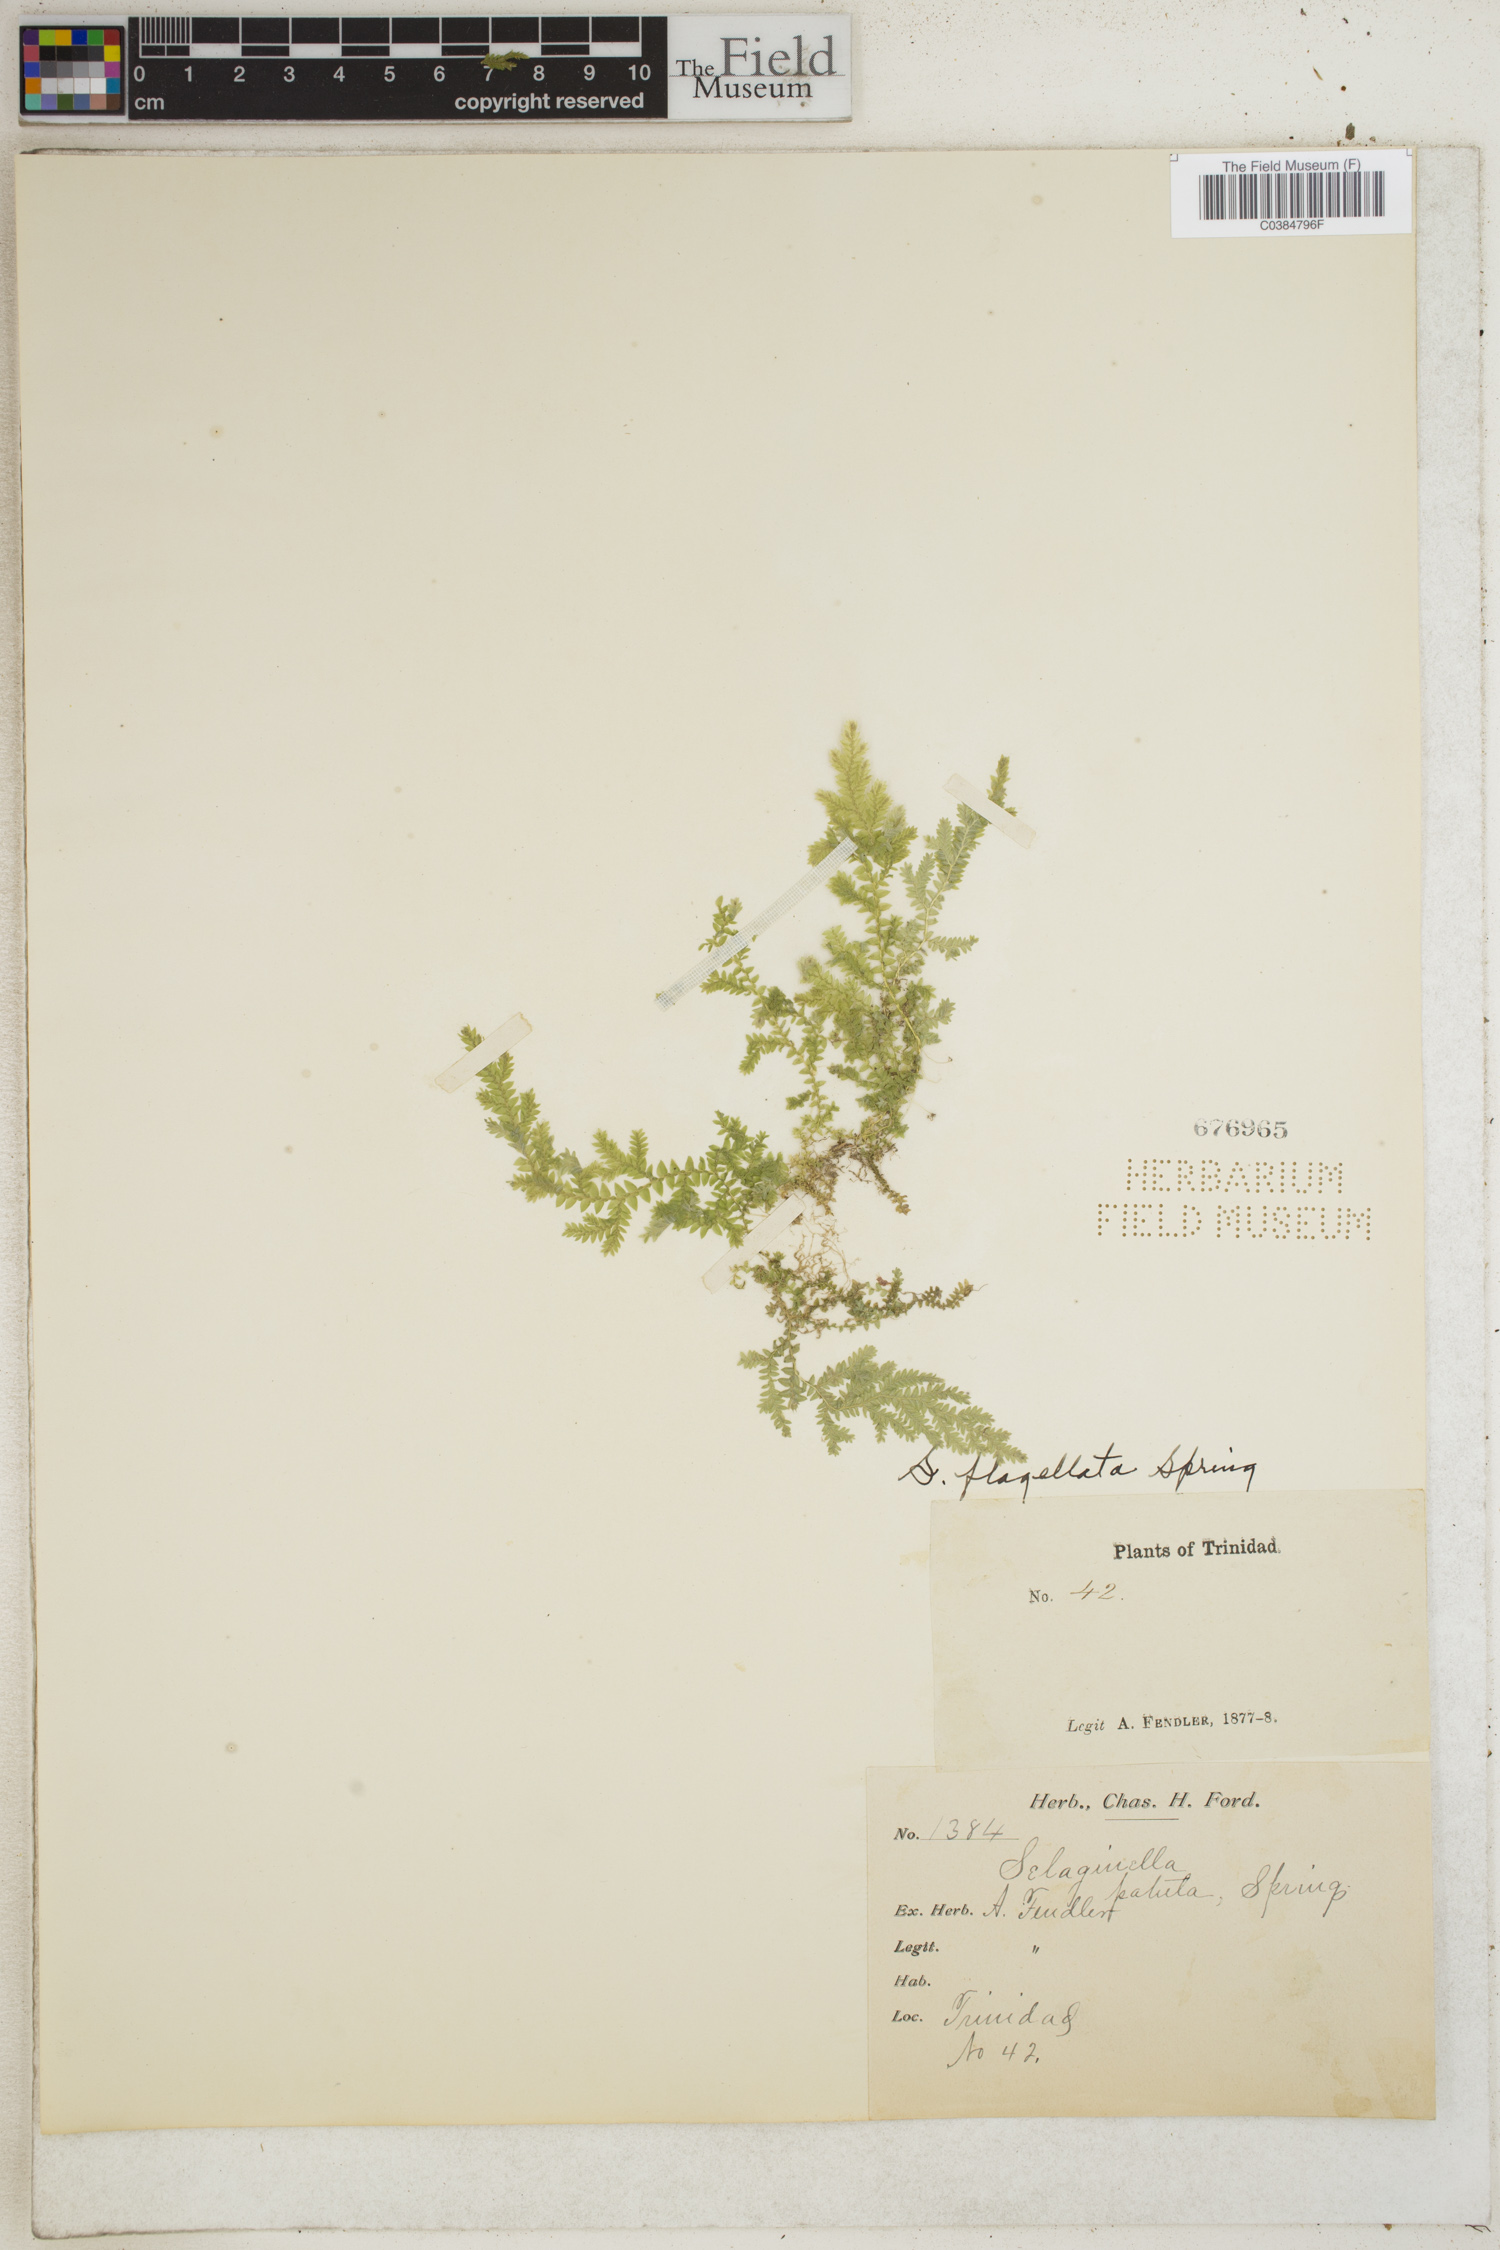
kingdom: Plantae
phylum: Tracheophyta
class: Lycopodiopsida
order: Selaginellales
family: Selaginellaceae
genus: Selaginella
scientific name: Selaginella flagellata
